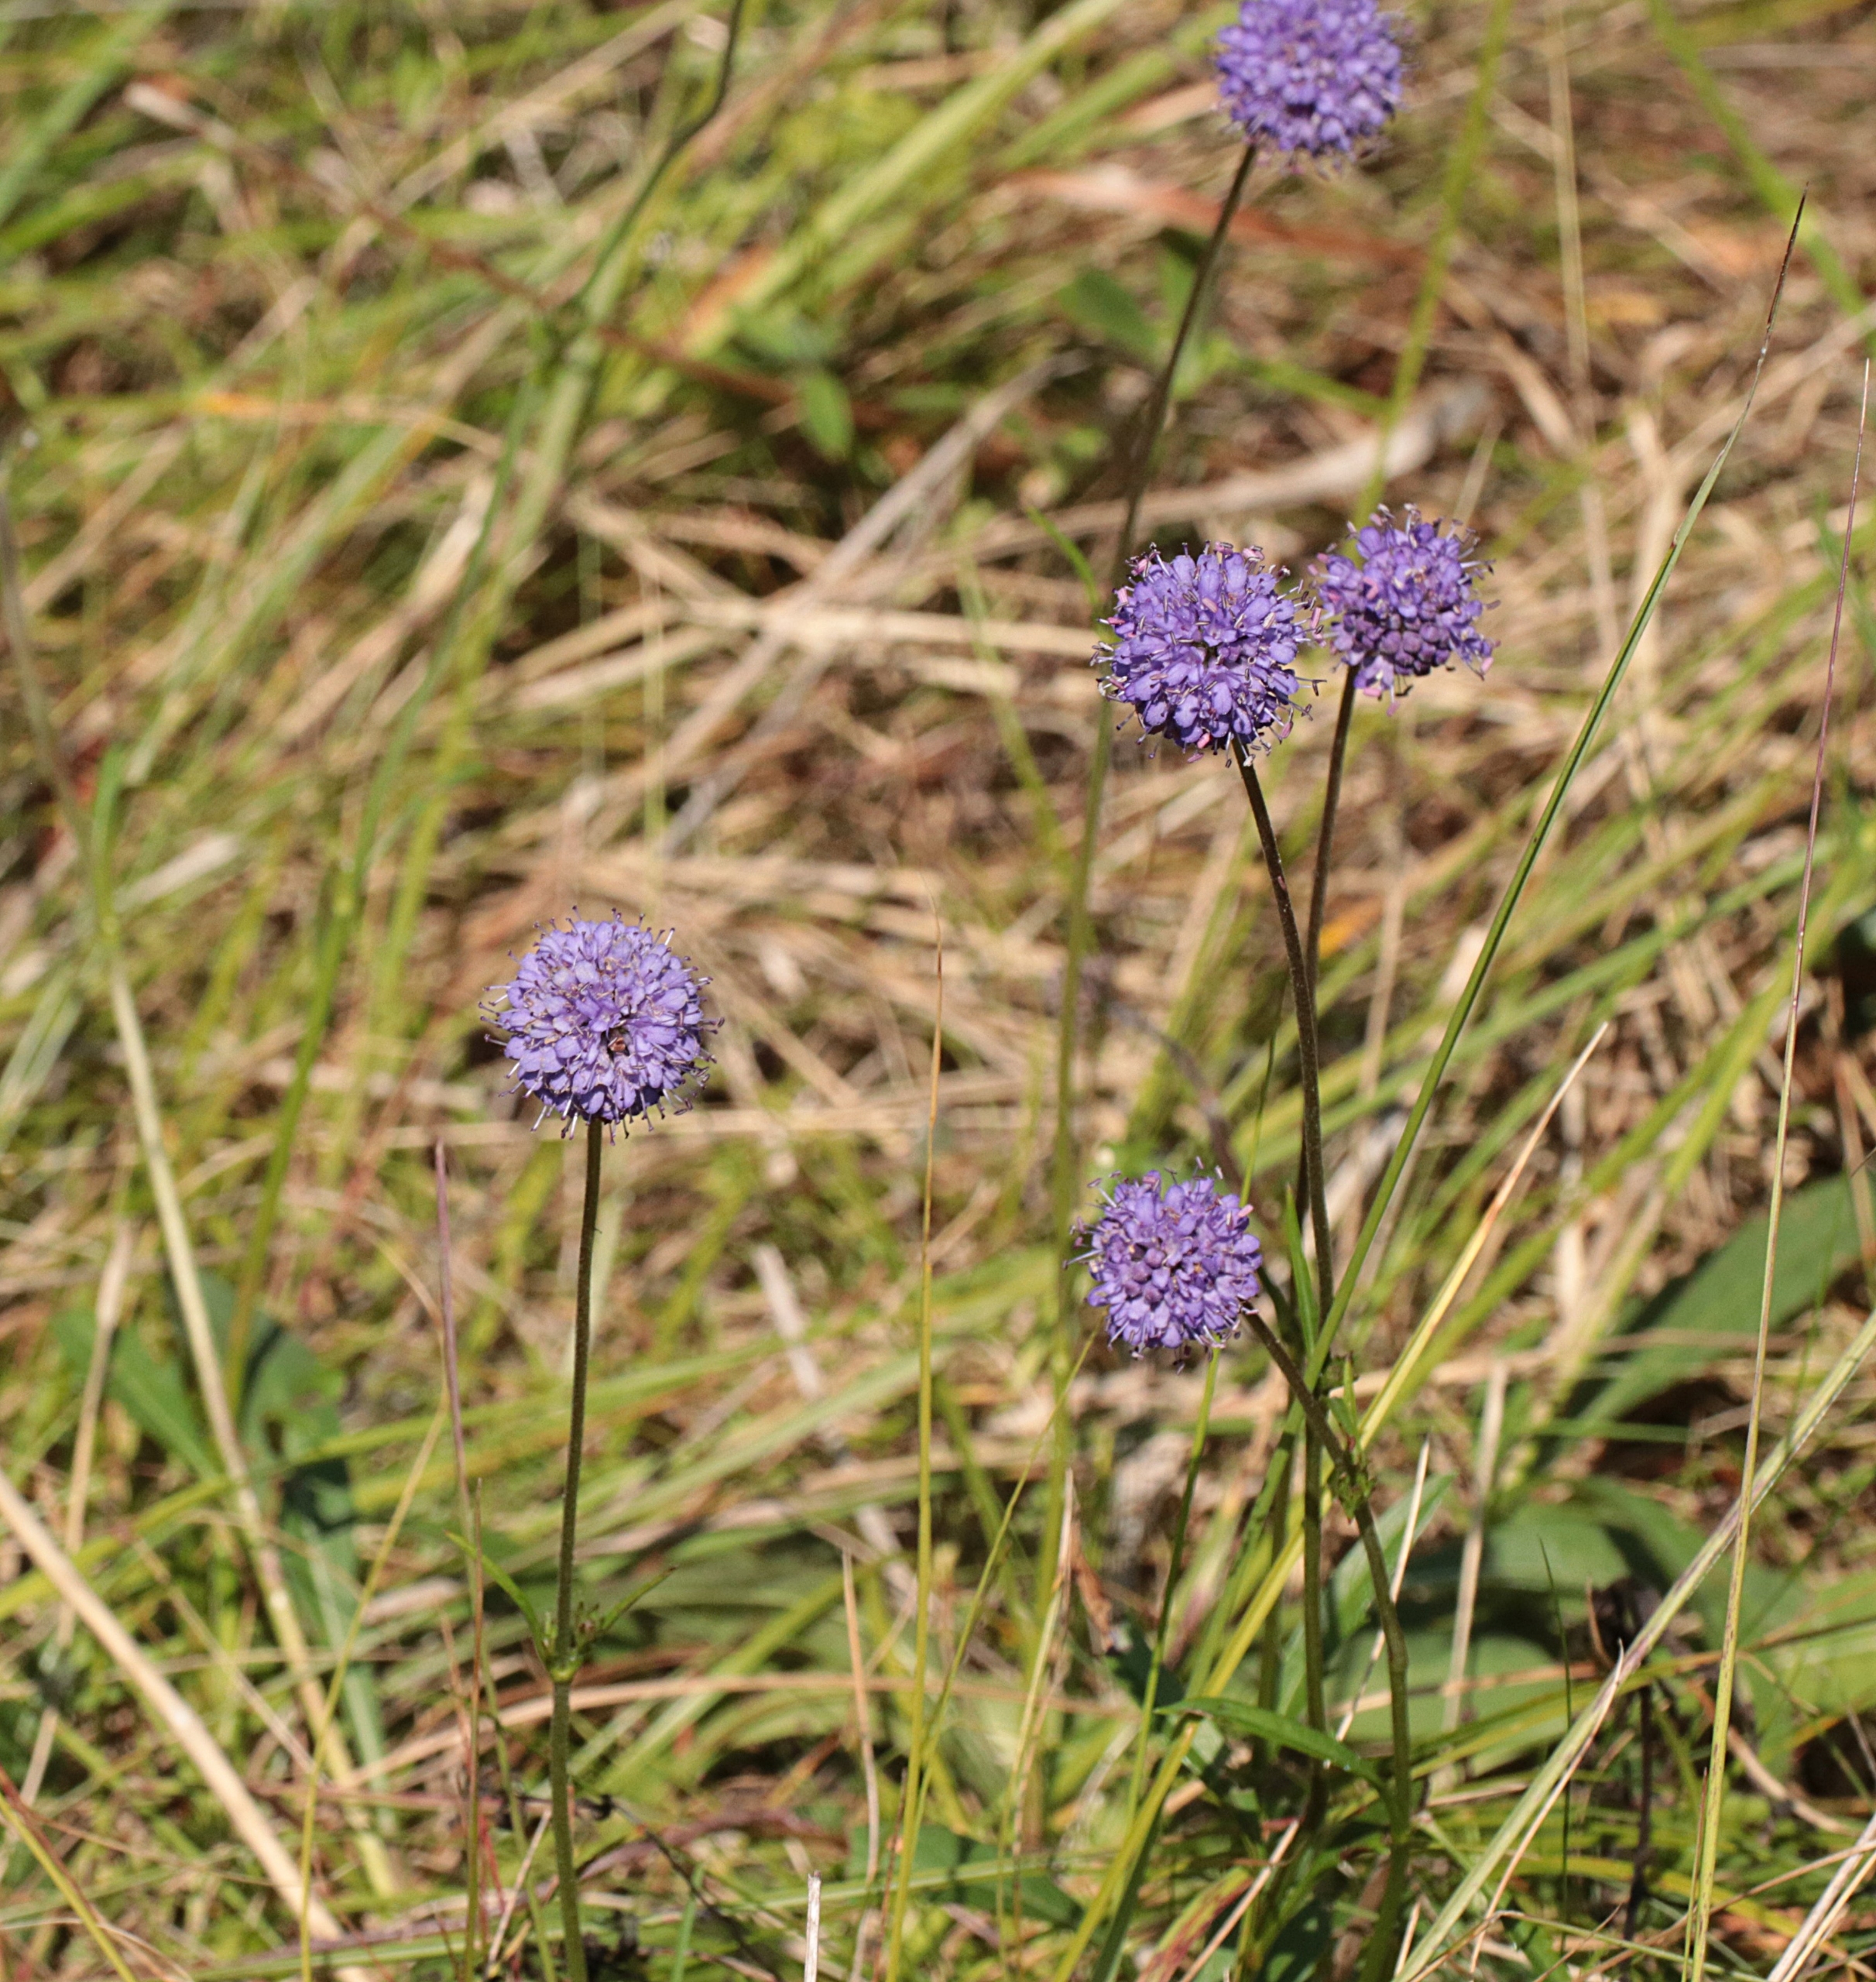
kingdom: Plantae
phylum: Tracheophyta
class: Magnoliopsida
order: Dipsacales
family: Caprifoliaceae
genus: Succisa
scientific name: Succisa pratensis
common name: Djævelsbid
